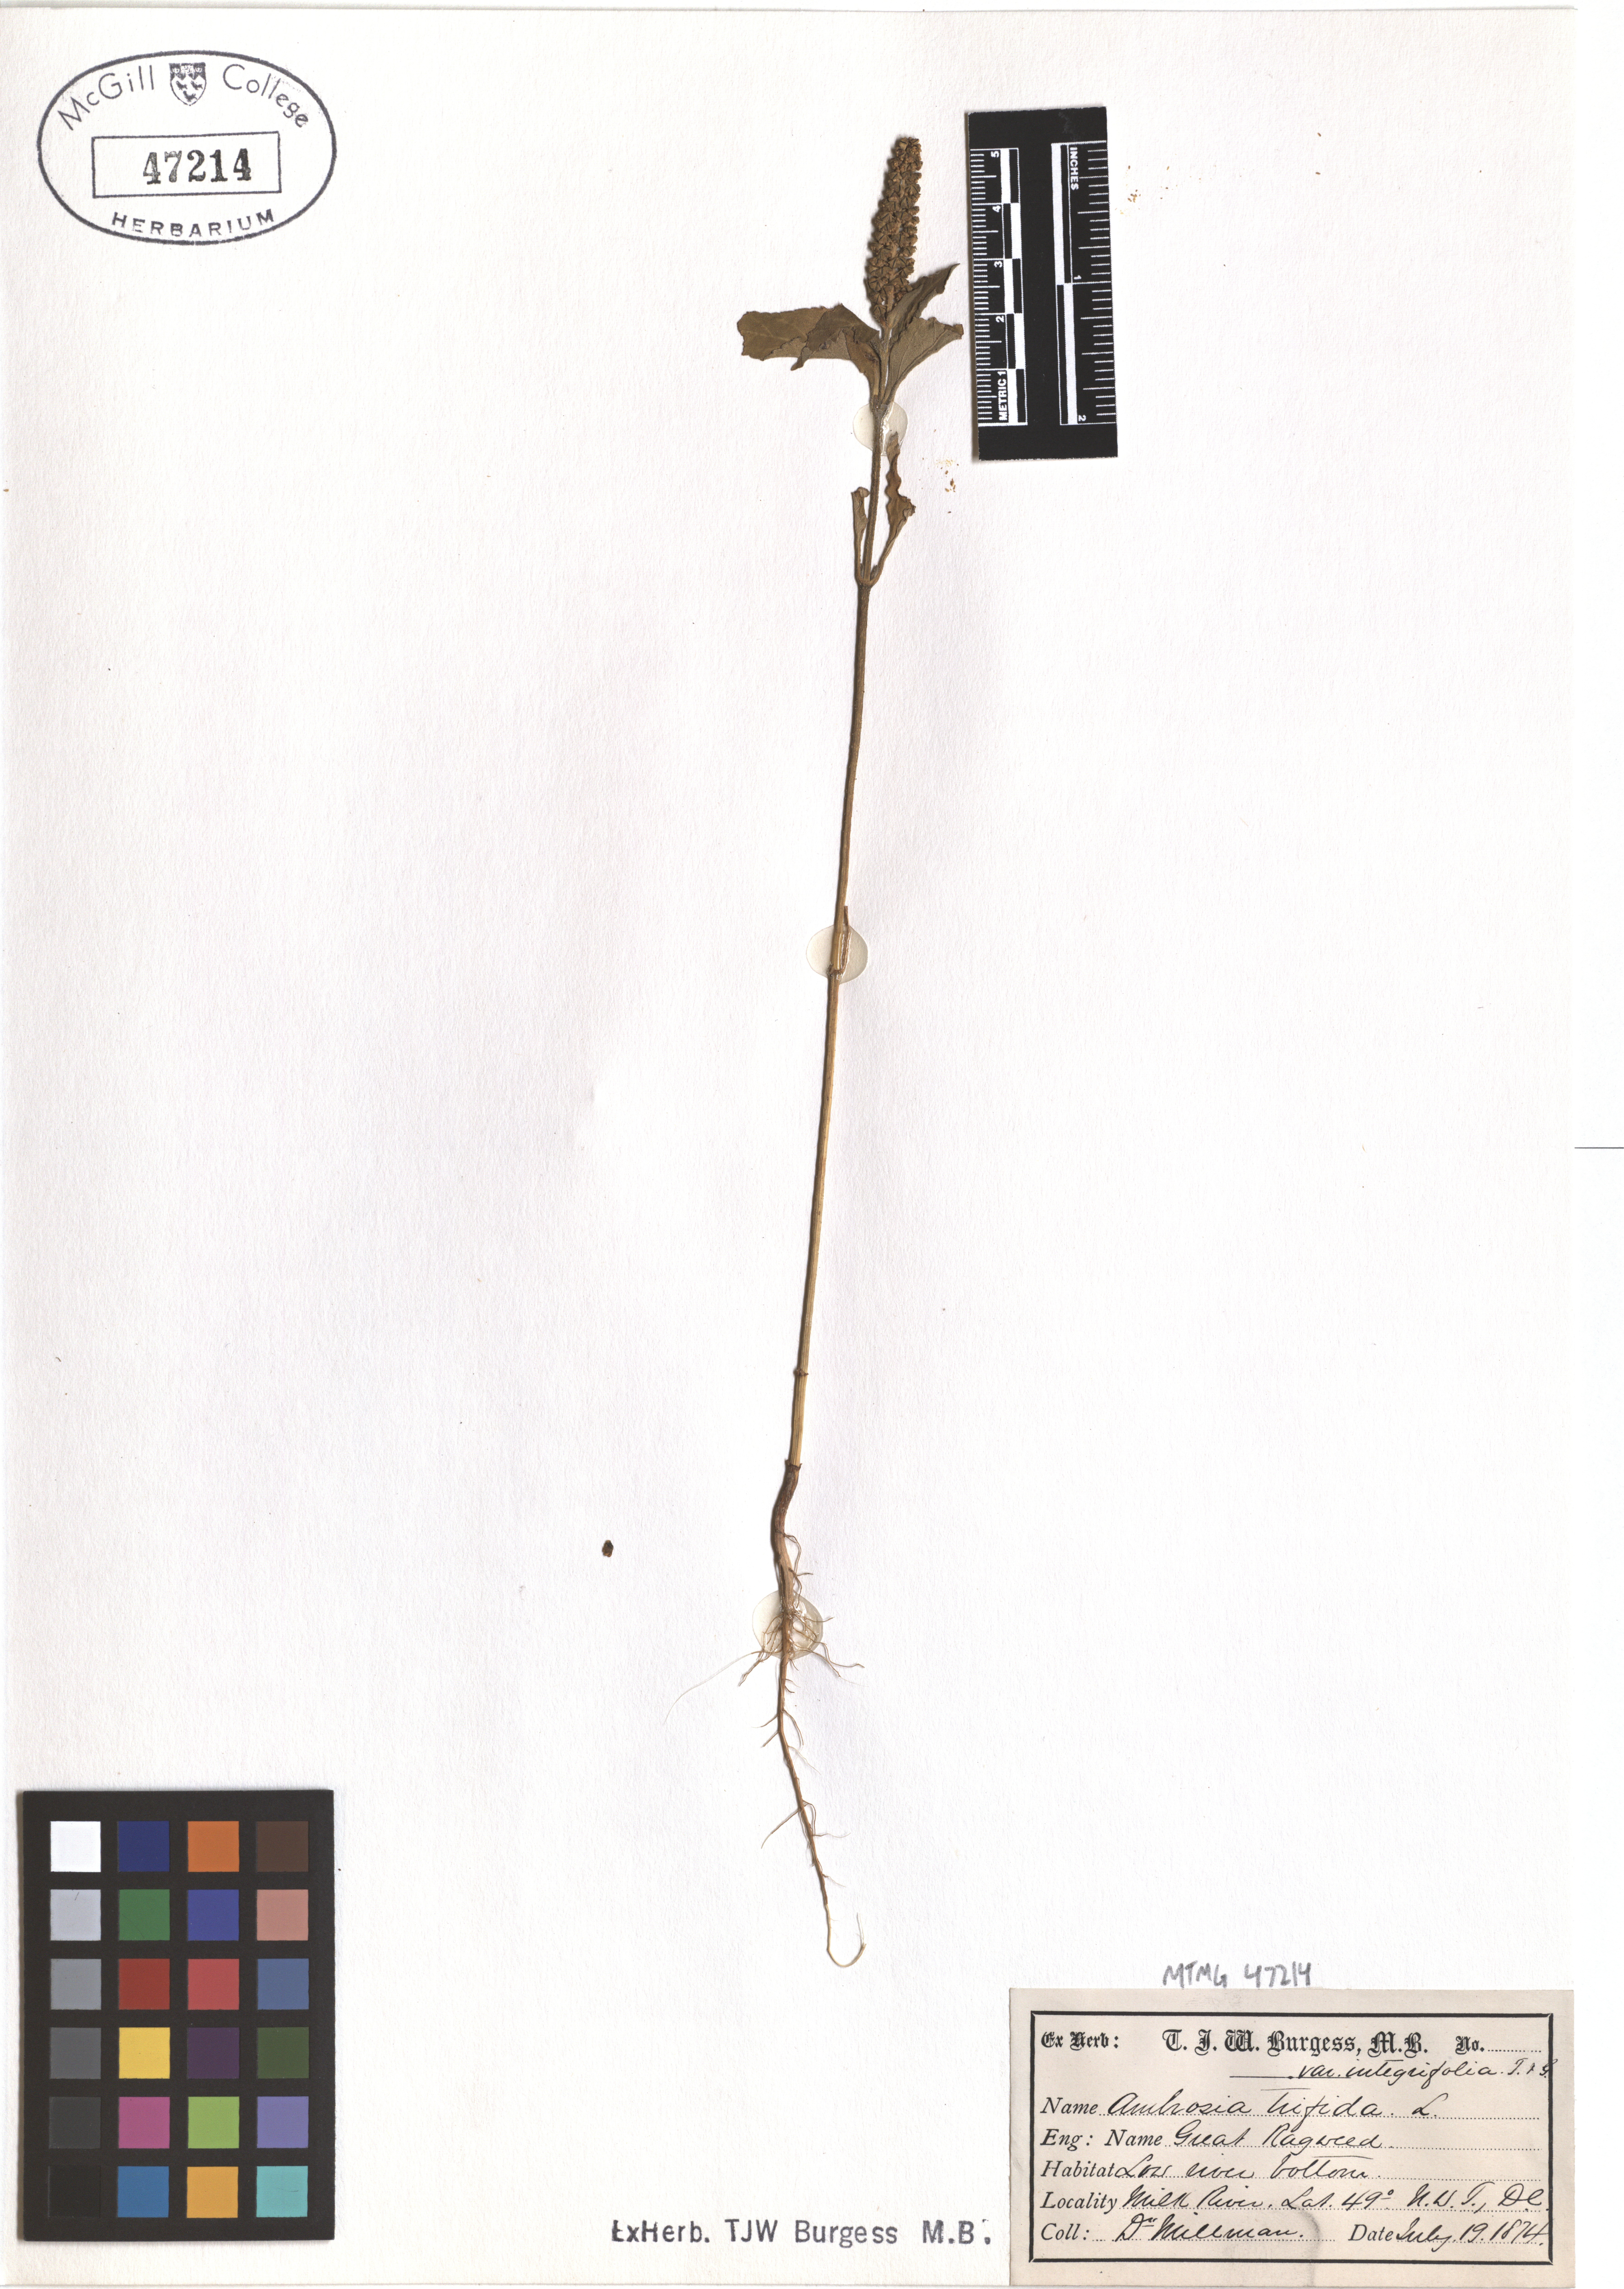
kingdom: Plantae
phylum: Tracheophyta
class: Magnoliopsida
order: Asterales
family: Asteraceae
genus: Ambrosia
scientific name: Ambrosia trifida
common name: Giant ragweed
